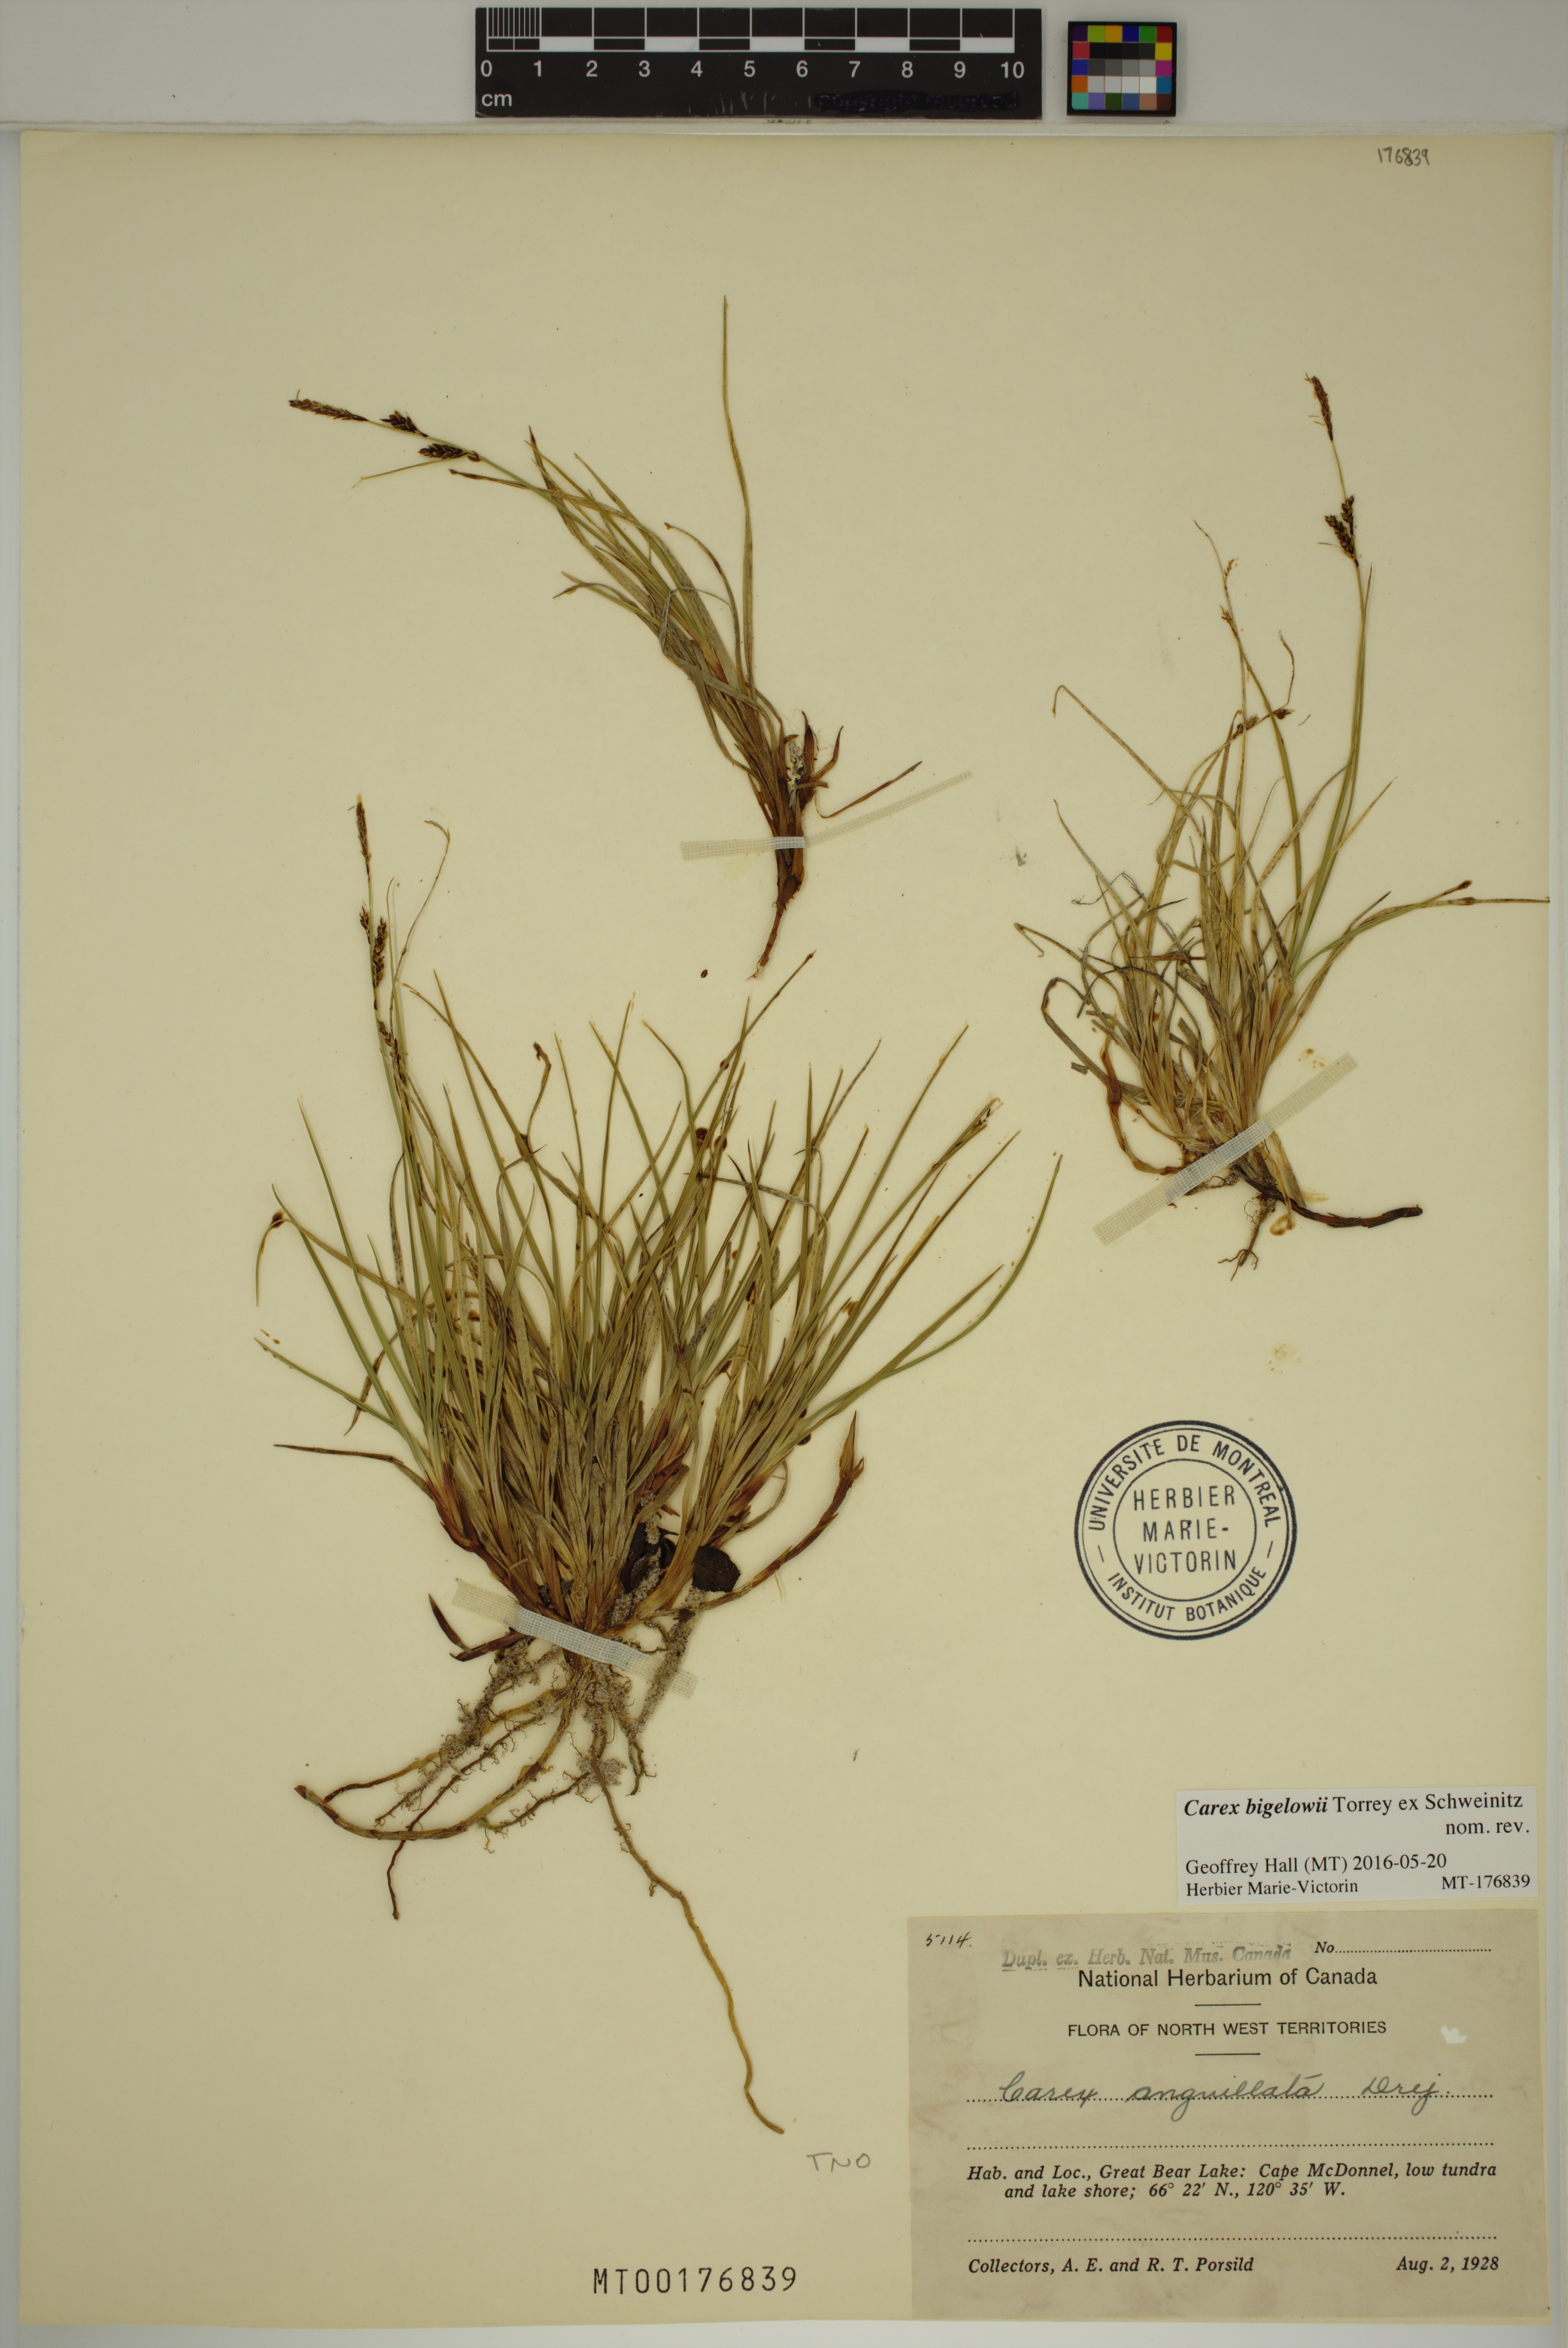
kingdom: Plantae
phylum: Tracheophyta
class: Liliopsida
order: Poales
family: Cyperaceae
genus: Carex
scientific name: Carex bigelowii
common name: Stiff sedge
